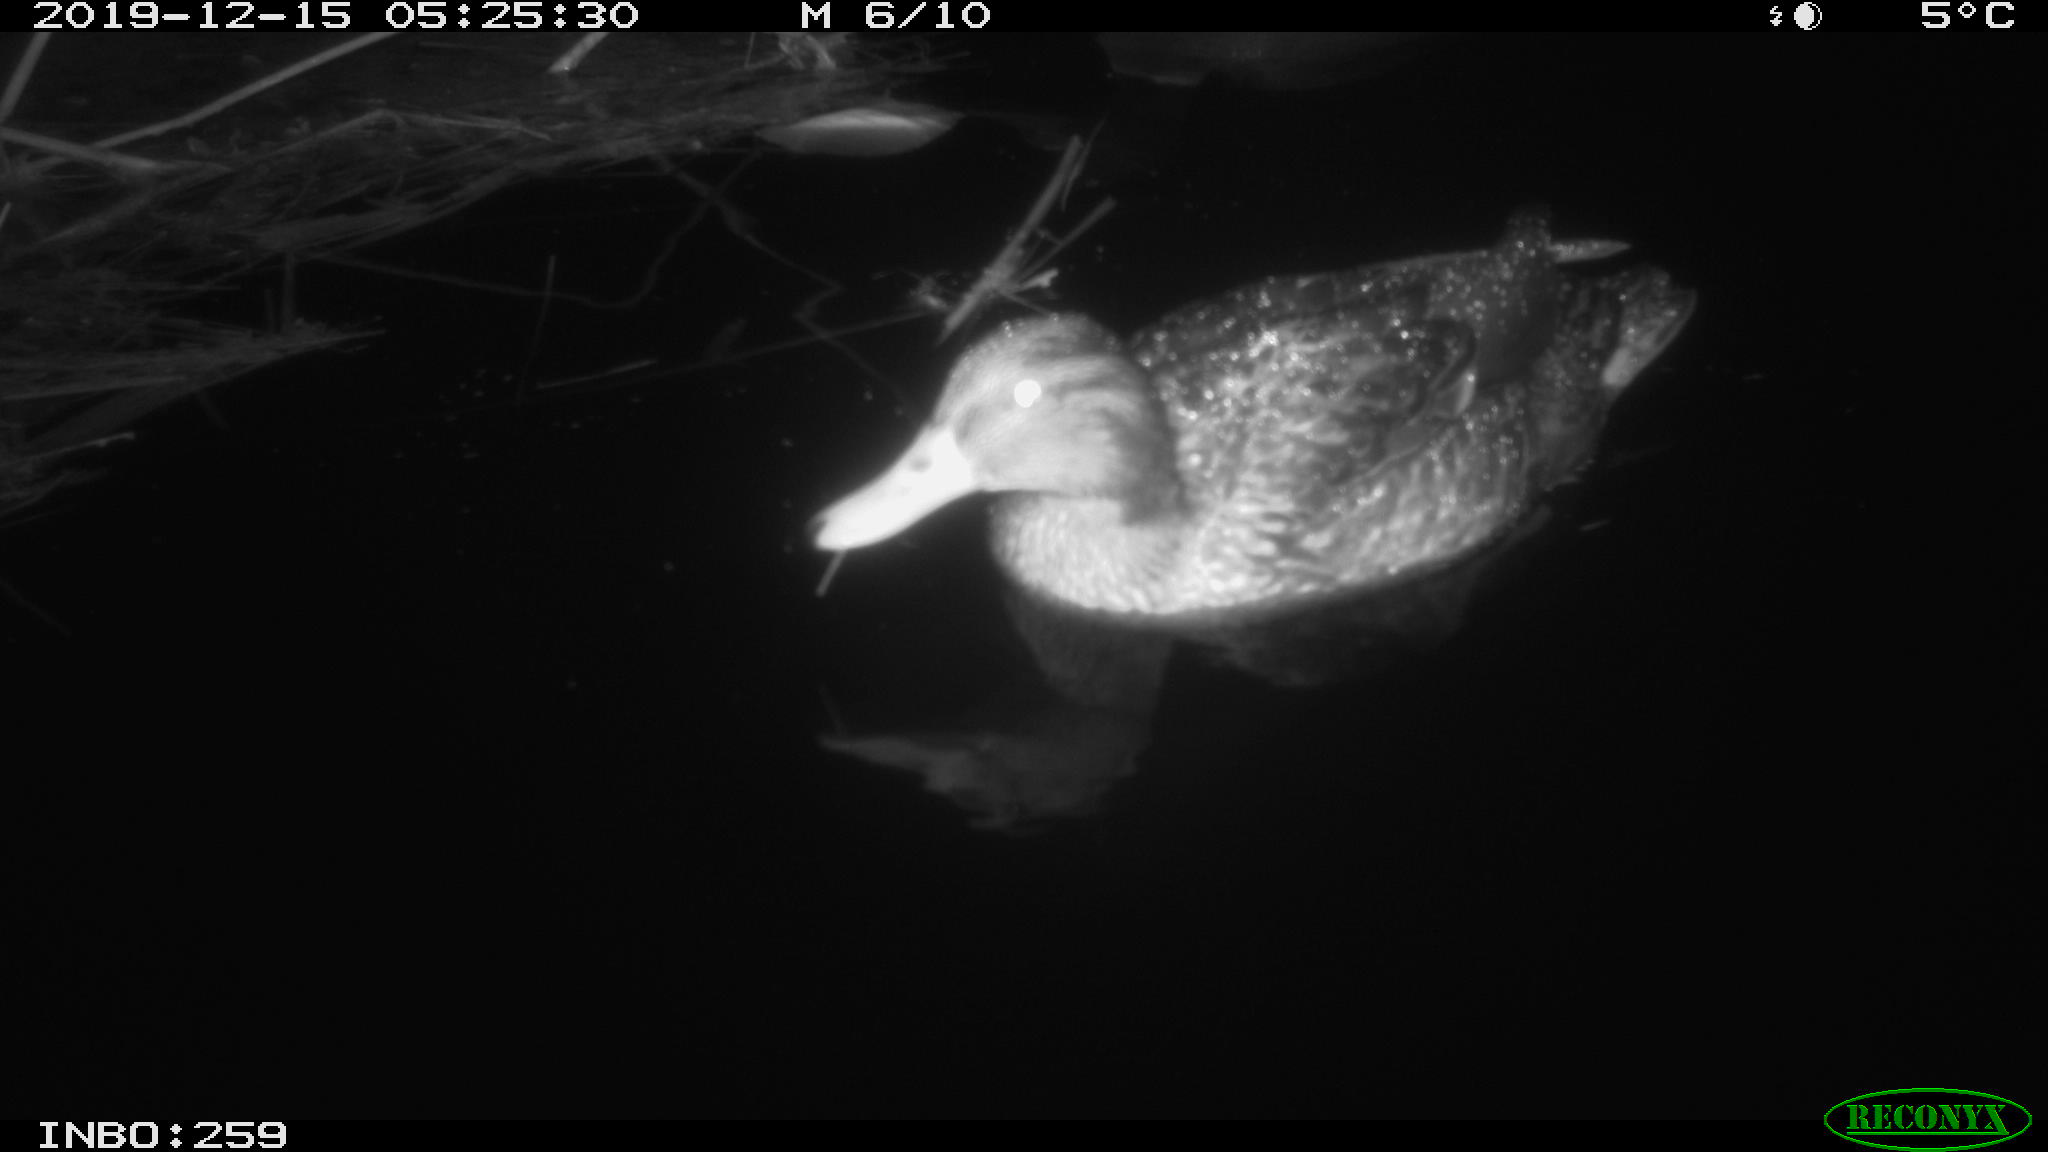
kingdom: Animalia
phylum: Chordata
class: Aves
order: Anseriformes
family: Anatidae
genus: Anas
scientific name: Anas platyrhynchos
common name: Mallard
